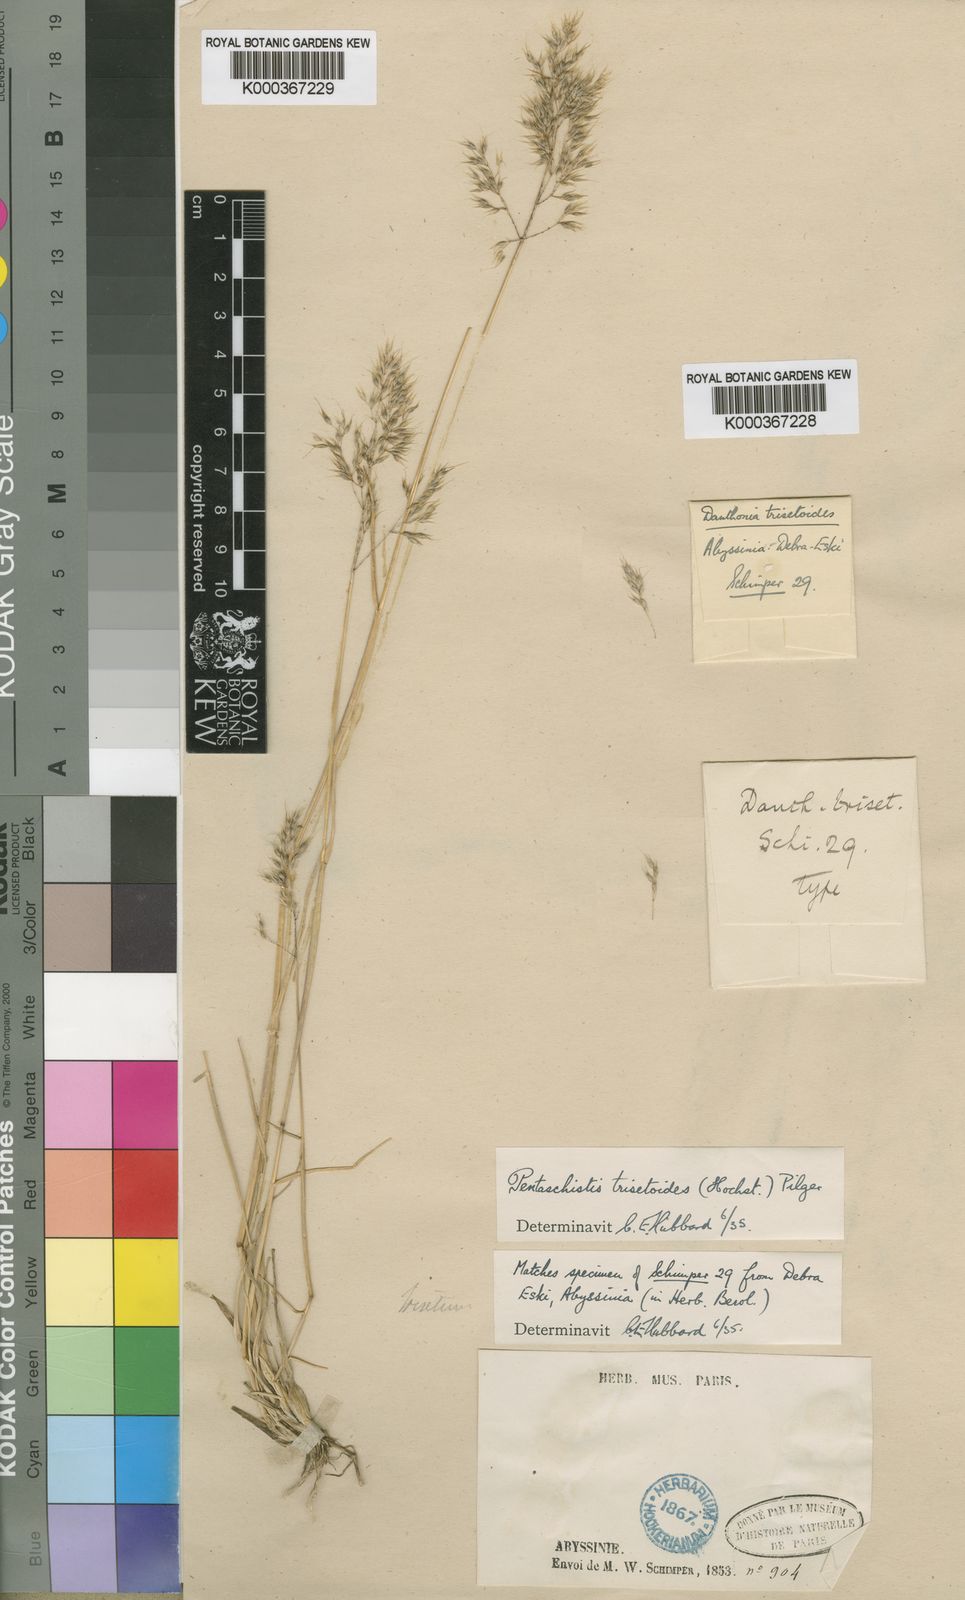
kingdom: Plantae
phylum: Tracheophyta
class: Liliopsida
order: Poales
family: Poaceae
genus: Pentameris
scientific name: Pentameris trisetoides
